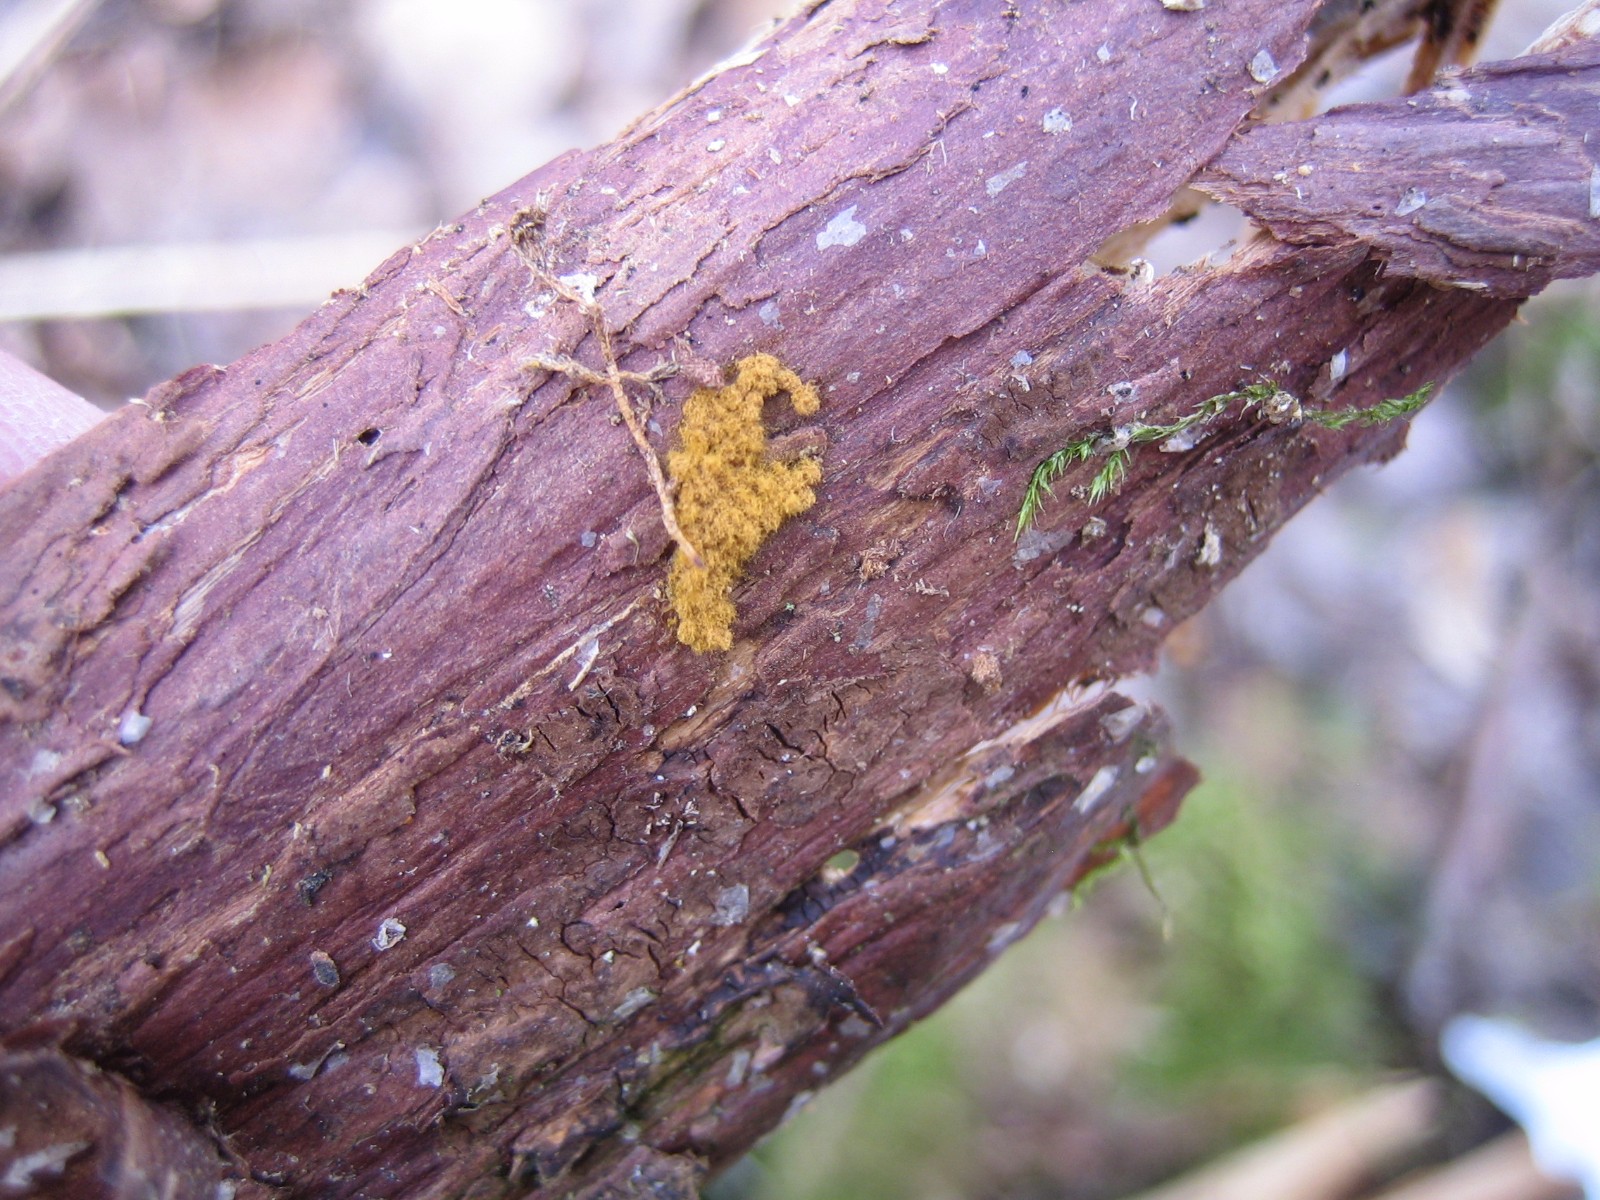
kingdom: Protozoa
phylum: Mycetozoa
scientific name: Mycetozoa
